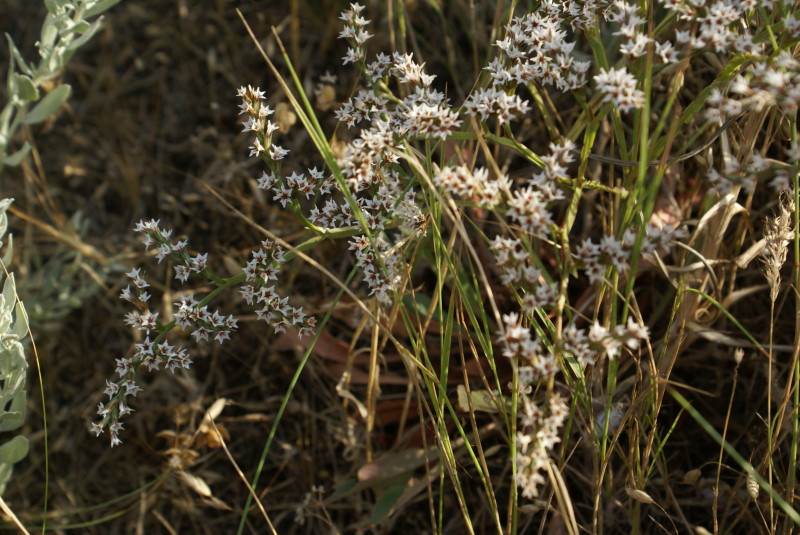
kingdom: Plantae
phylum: Tracheophyta
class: Magnoliopsida
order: Caryophyllales
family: Plumbaginaceae
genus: Goniolimon
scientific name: Goniolimon tauricum
